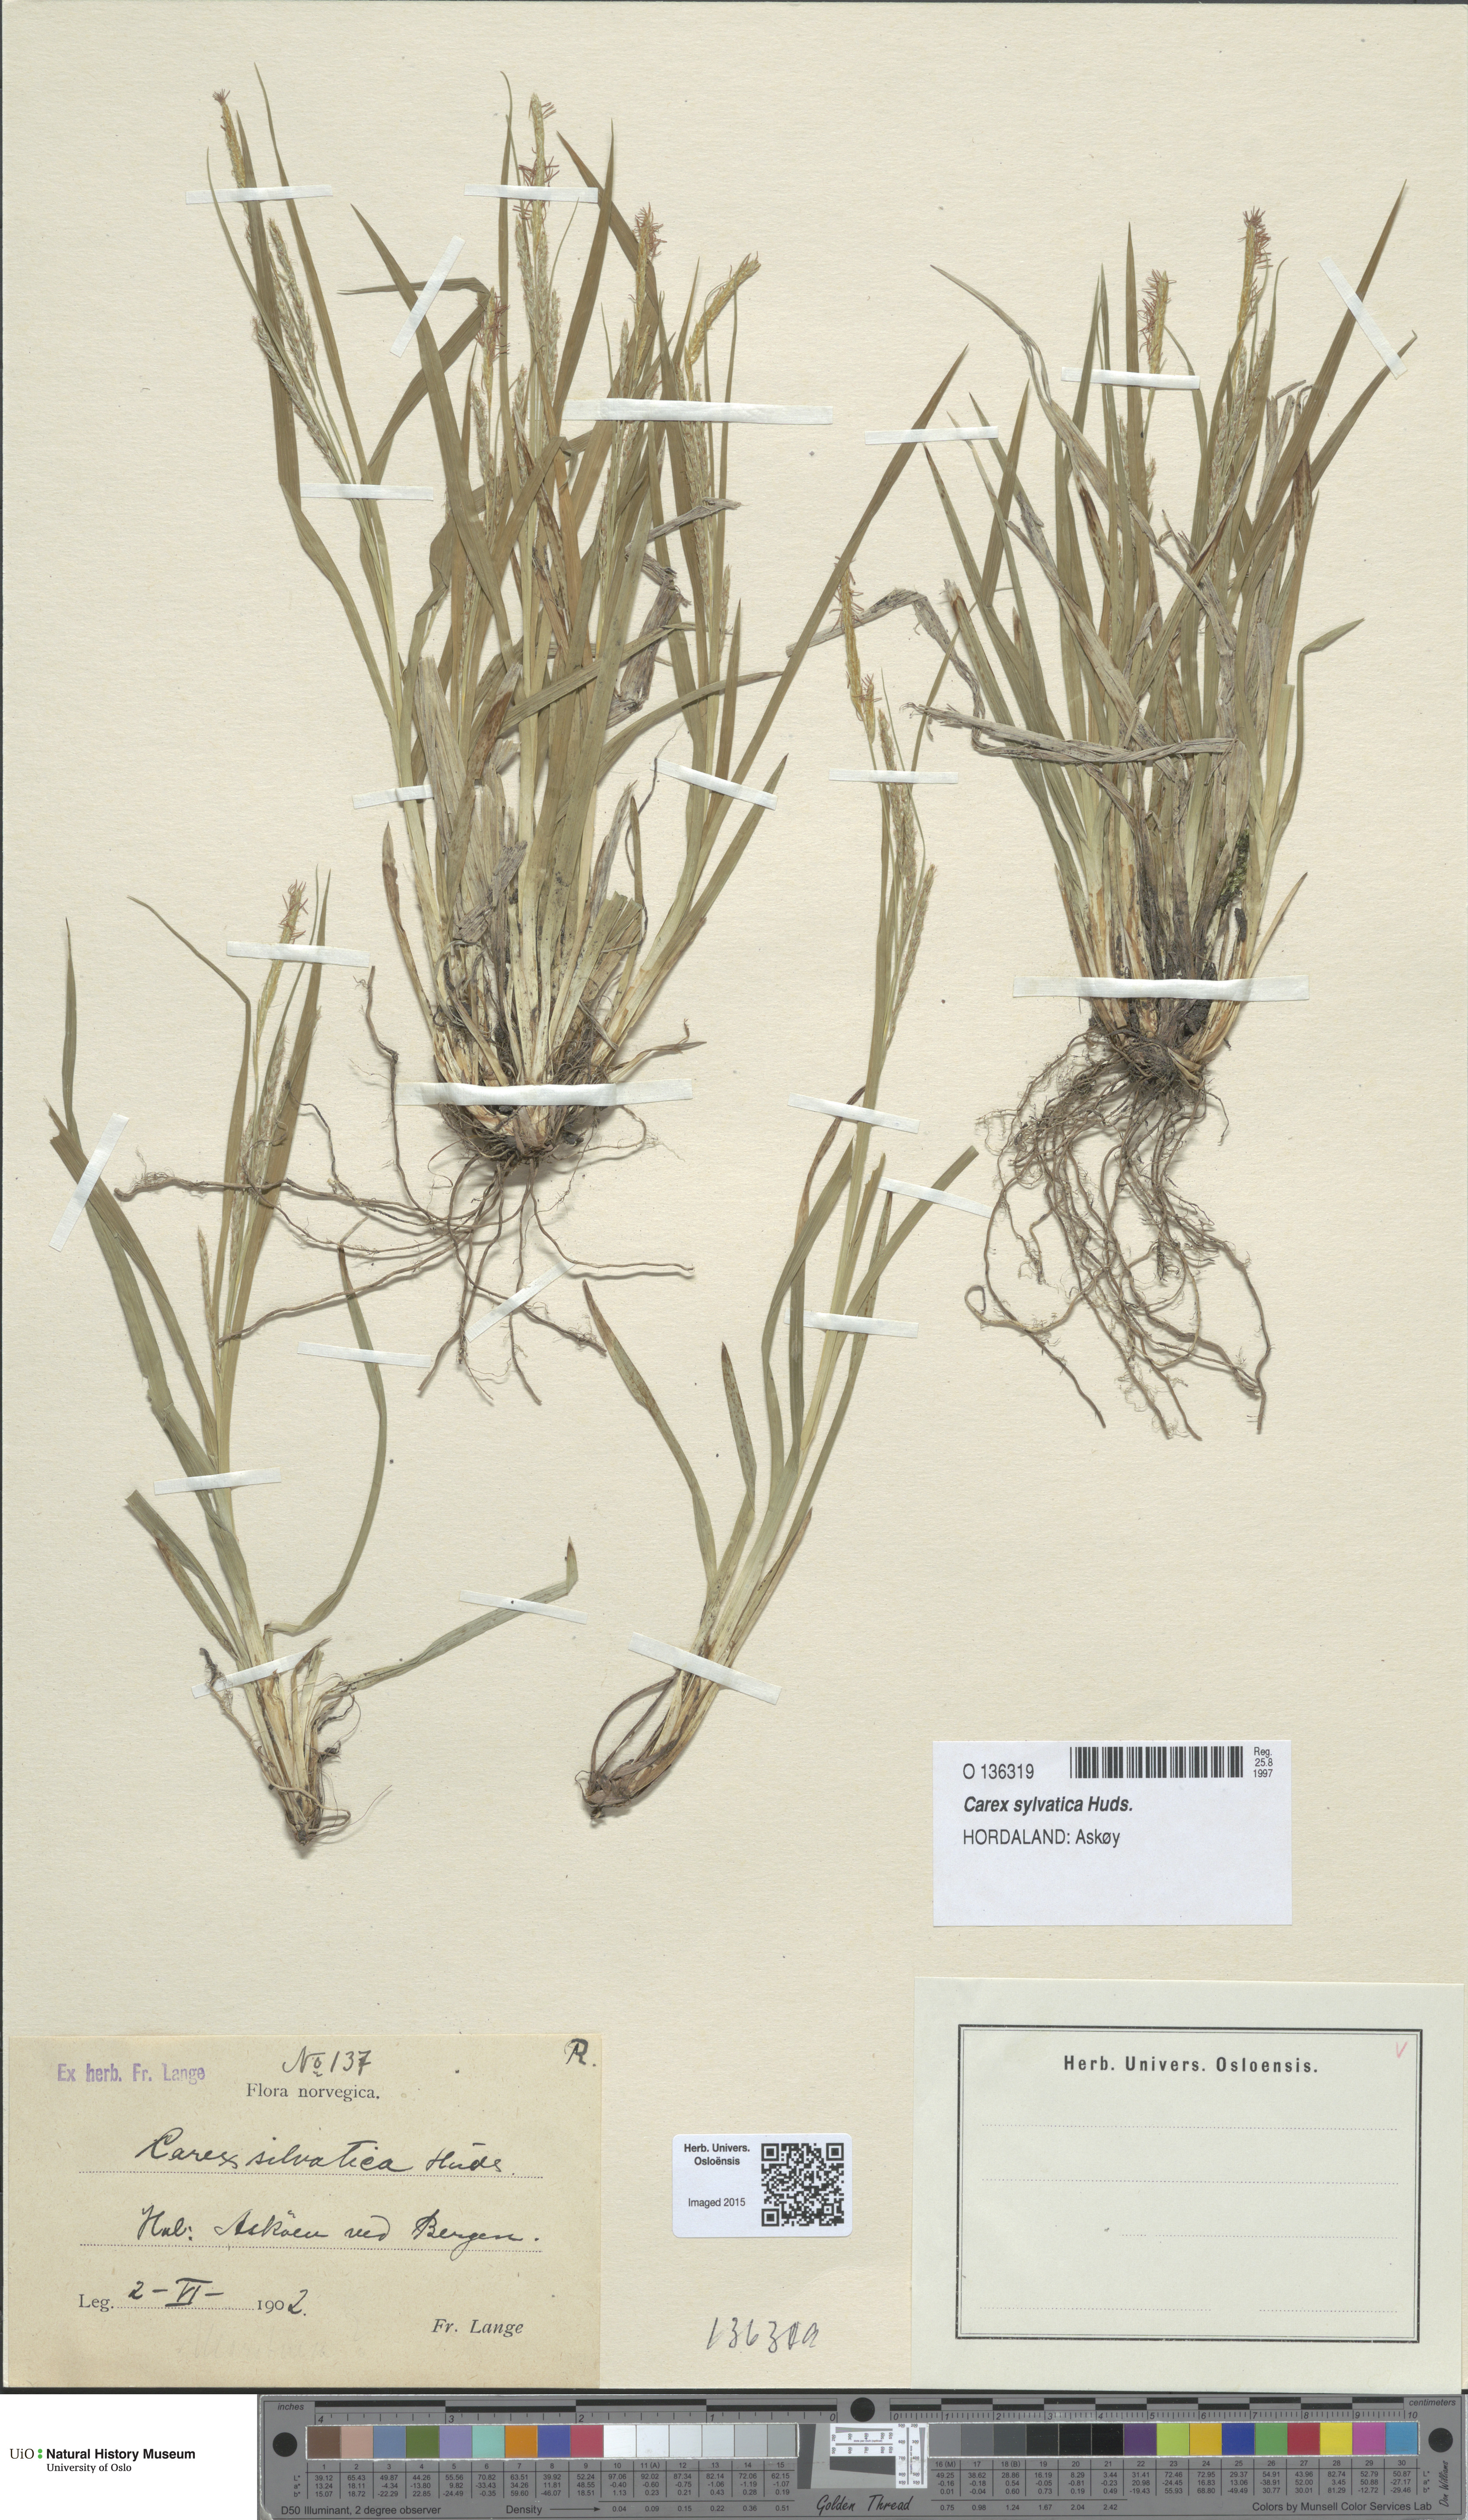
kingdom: Plantae
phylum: Tracheophyta
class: Liliopsida
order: Poales
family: Cyperaceae
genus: Carex
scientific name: Carex sylvatica
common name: Wood-sedge
